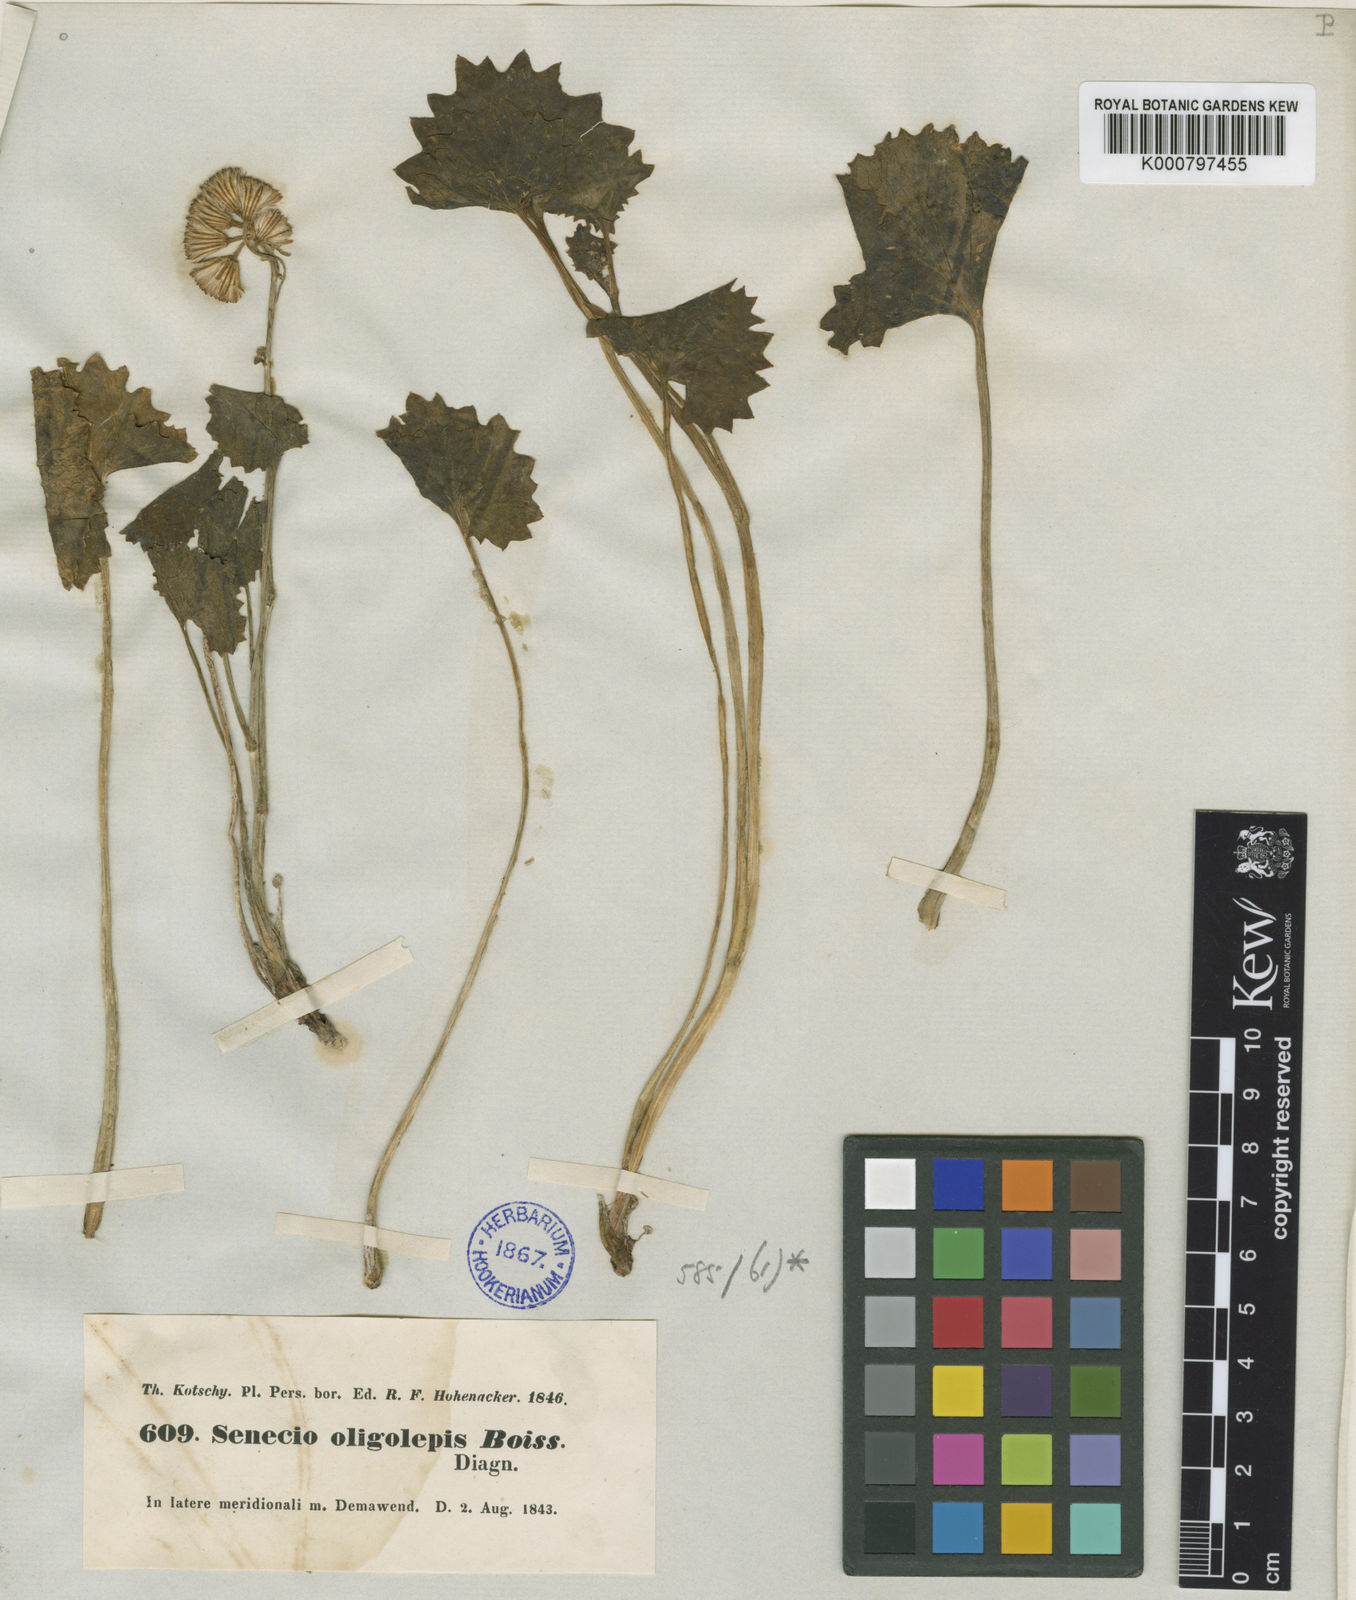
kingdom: Plantae
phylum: Tracheophyta
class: Magnoliopsida
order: Asterales
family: Asteraceae
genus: Iranecio
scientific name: Iranecio oligolepis
